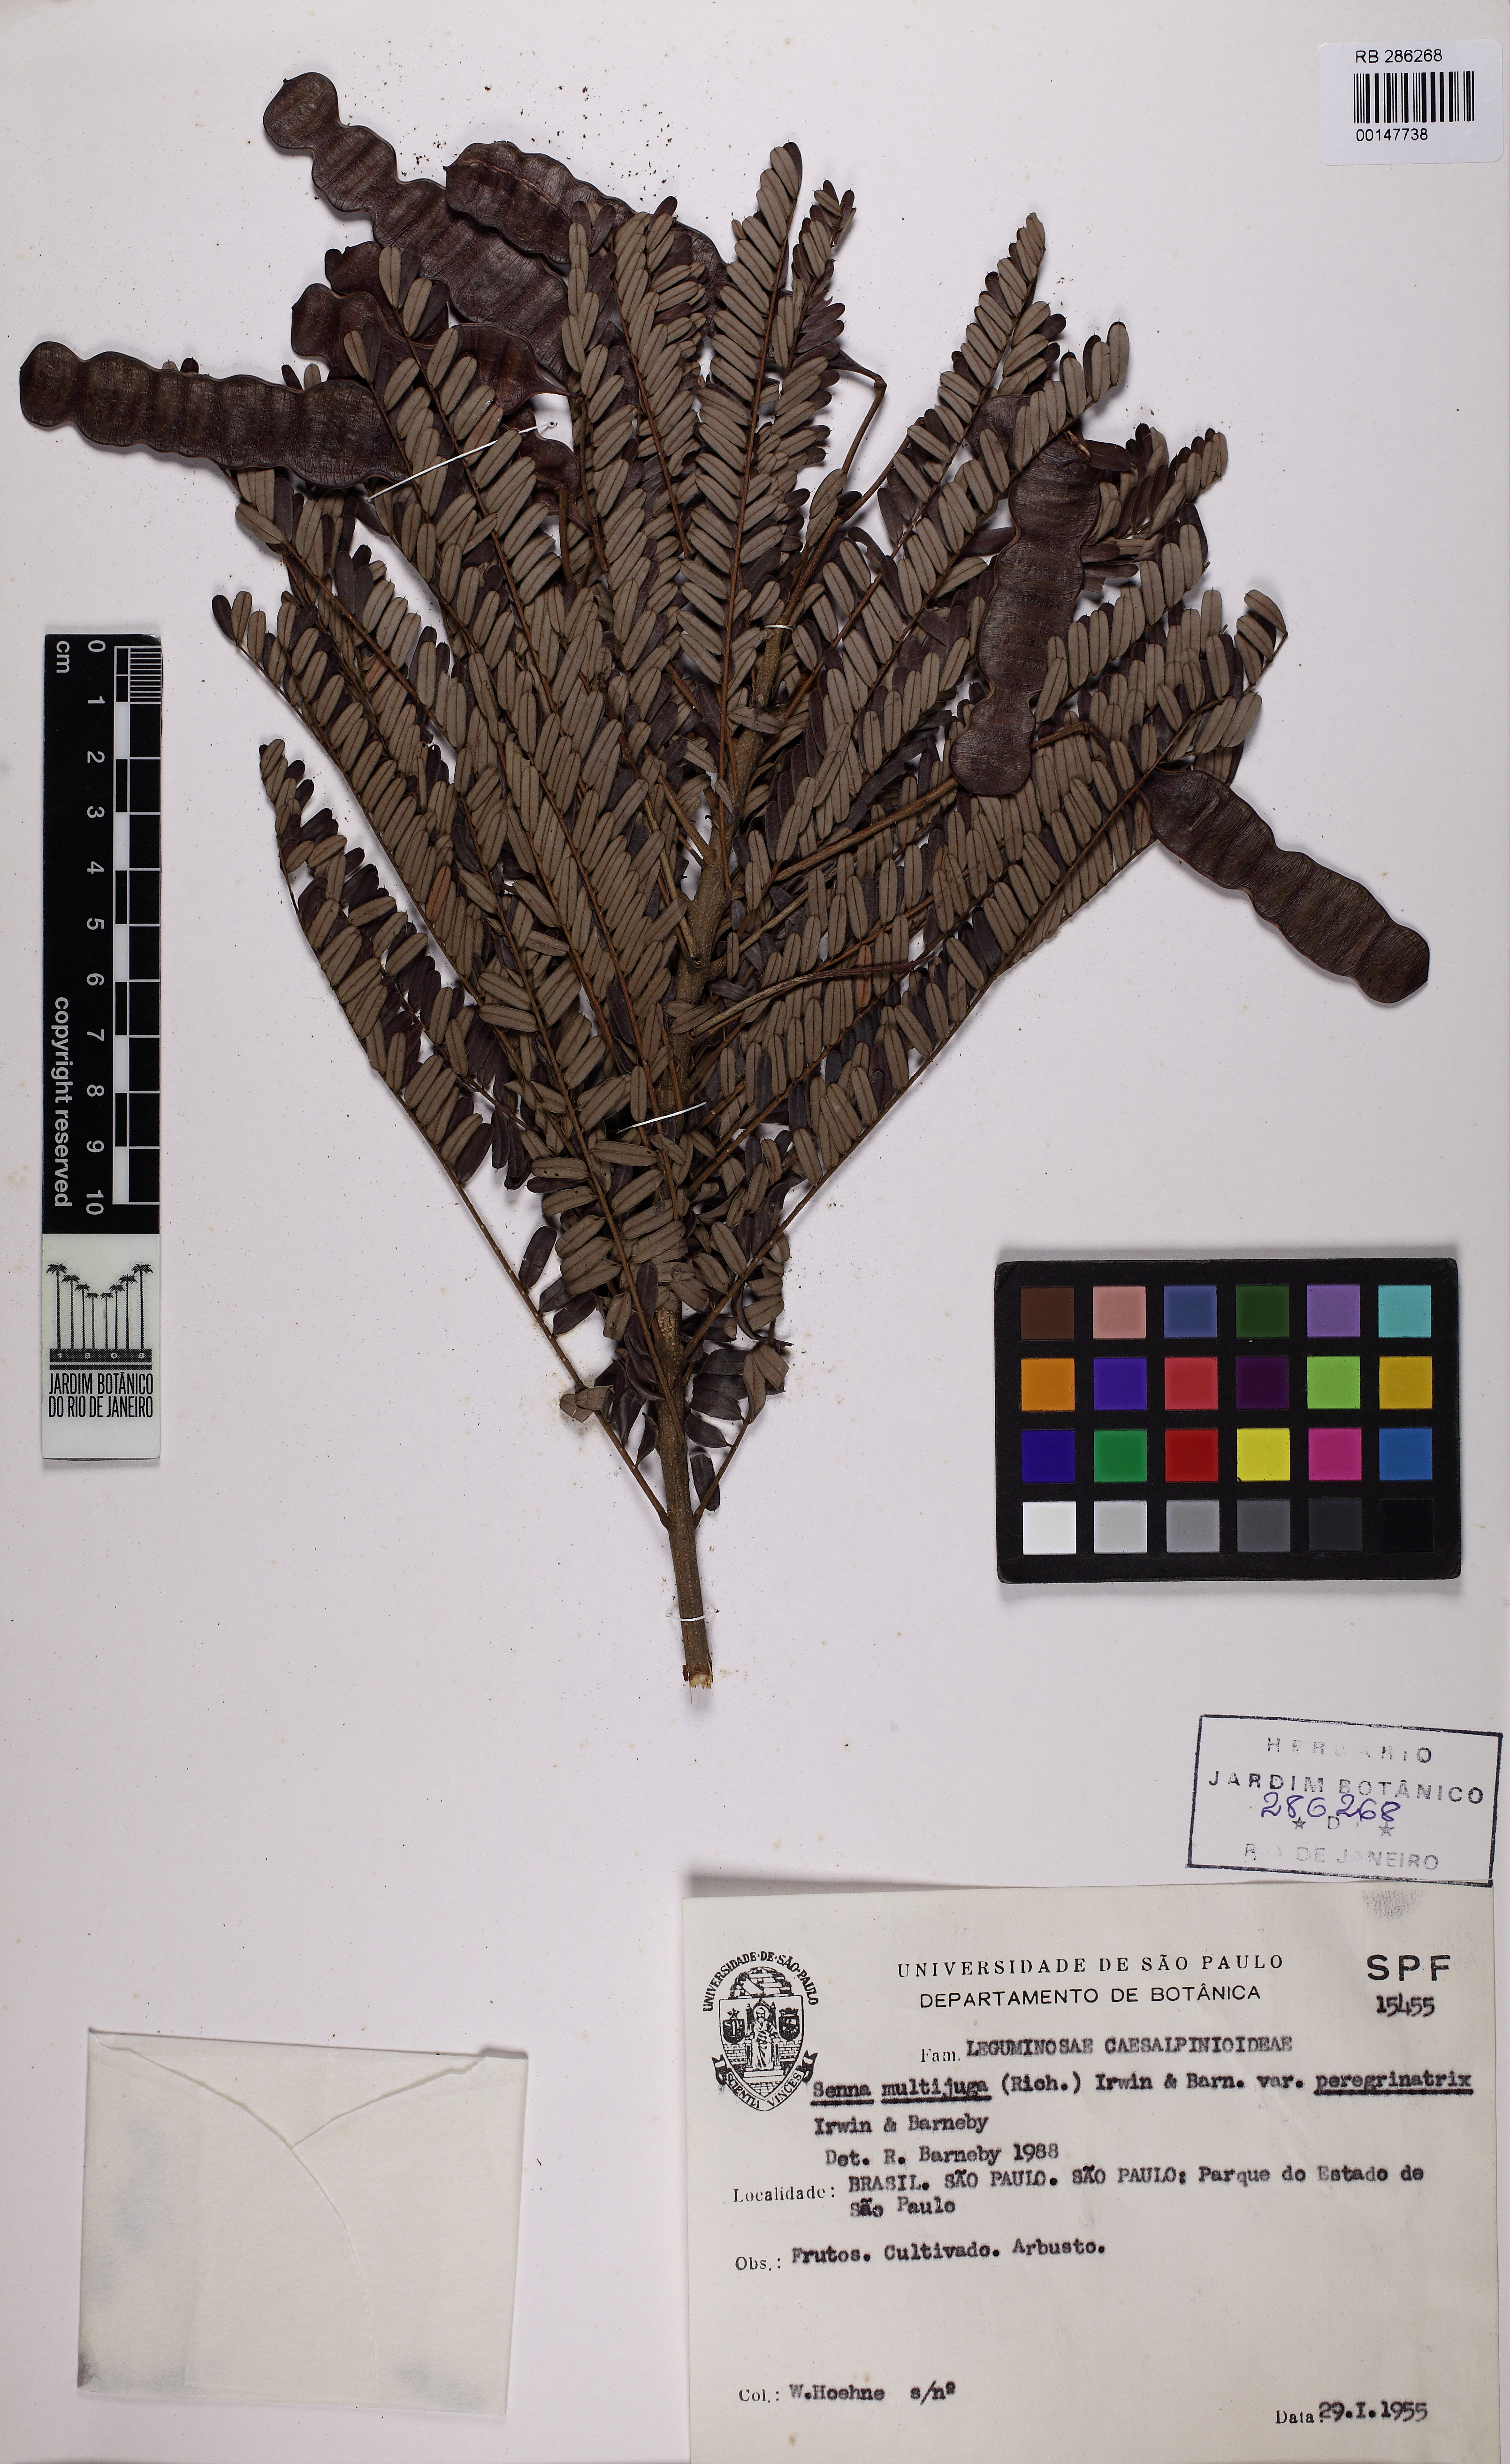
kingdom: Plantae
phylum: Tracheophyta
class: Magnoliopsida
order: Fabales
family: Fabaceae
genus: Senna
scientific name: Senna multijuga
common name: False sicklepod
